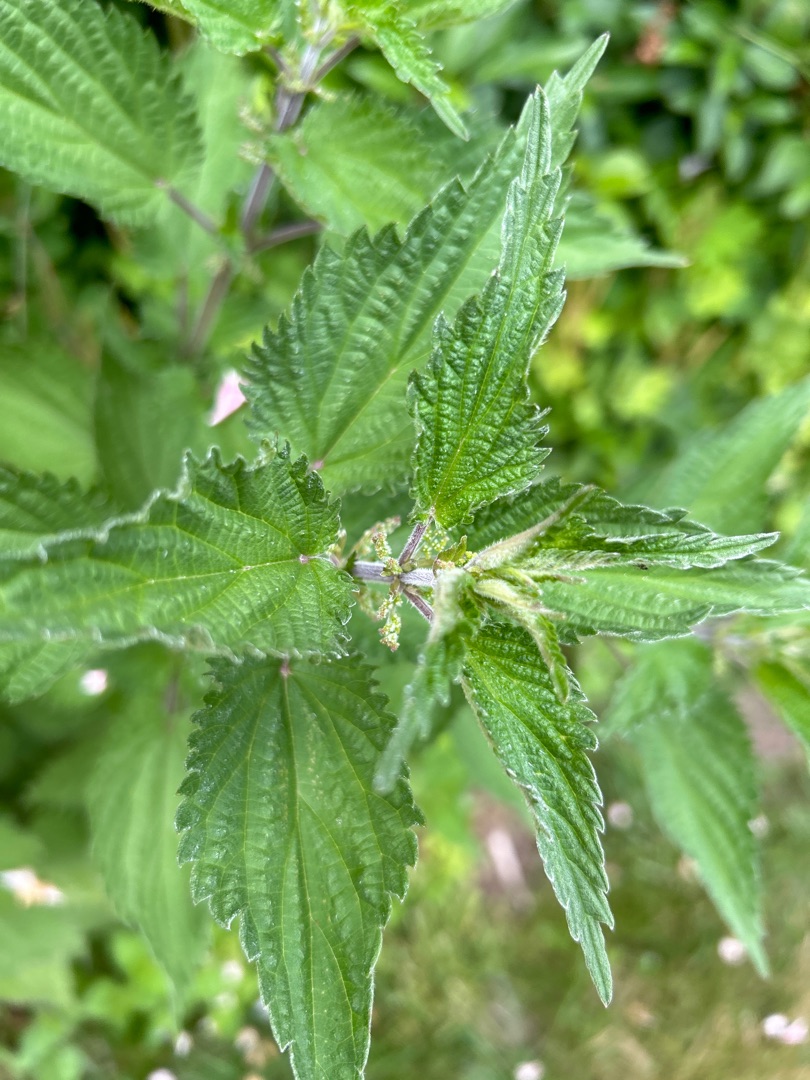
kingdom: Plantae
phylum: Tracheophyta
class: Magnoliopsida
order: Rosales
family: Urticaceae
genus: Urtica
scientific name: Urtica dioica
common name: Stor nælde
